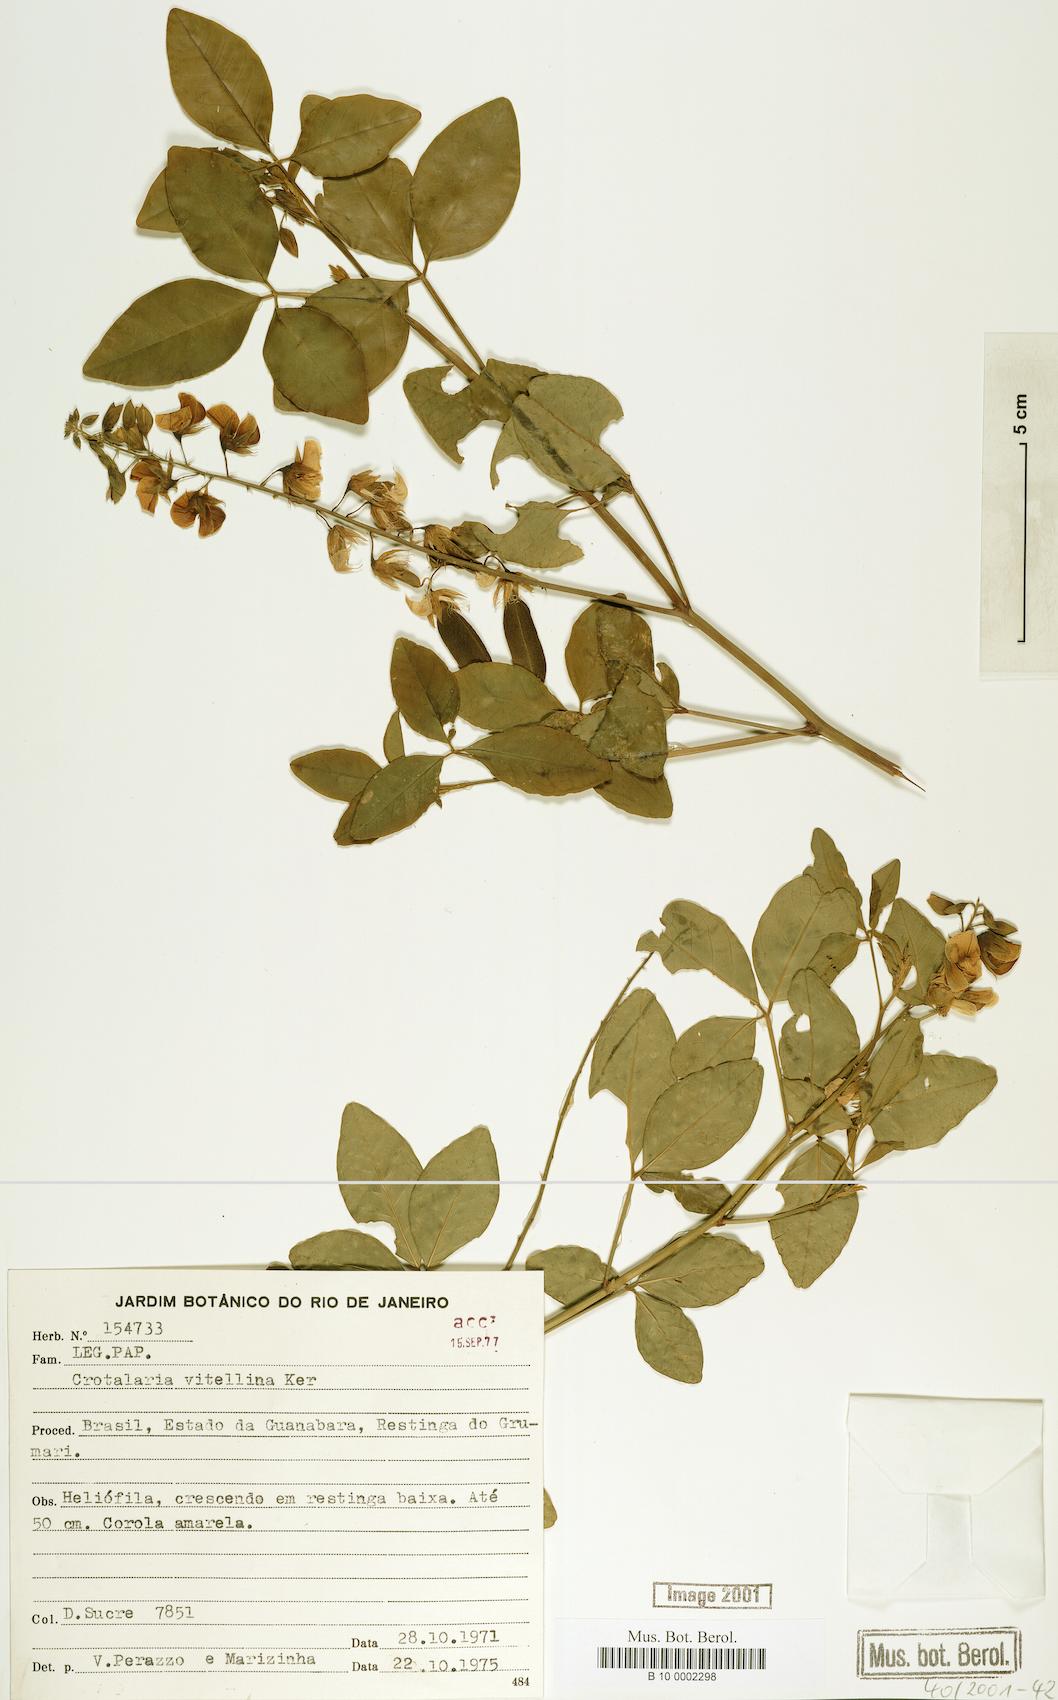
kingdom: Plantae
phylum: Tracheophyta
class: Magnoliopsida
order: Fabales
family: Fabaceae
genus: Crotalaria
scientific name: Crotalaria vitellina
